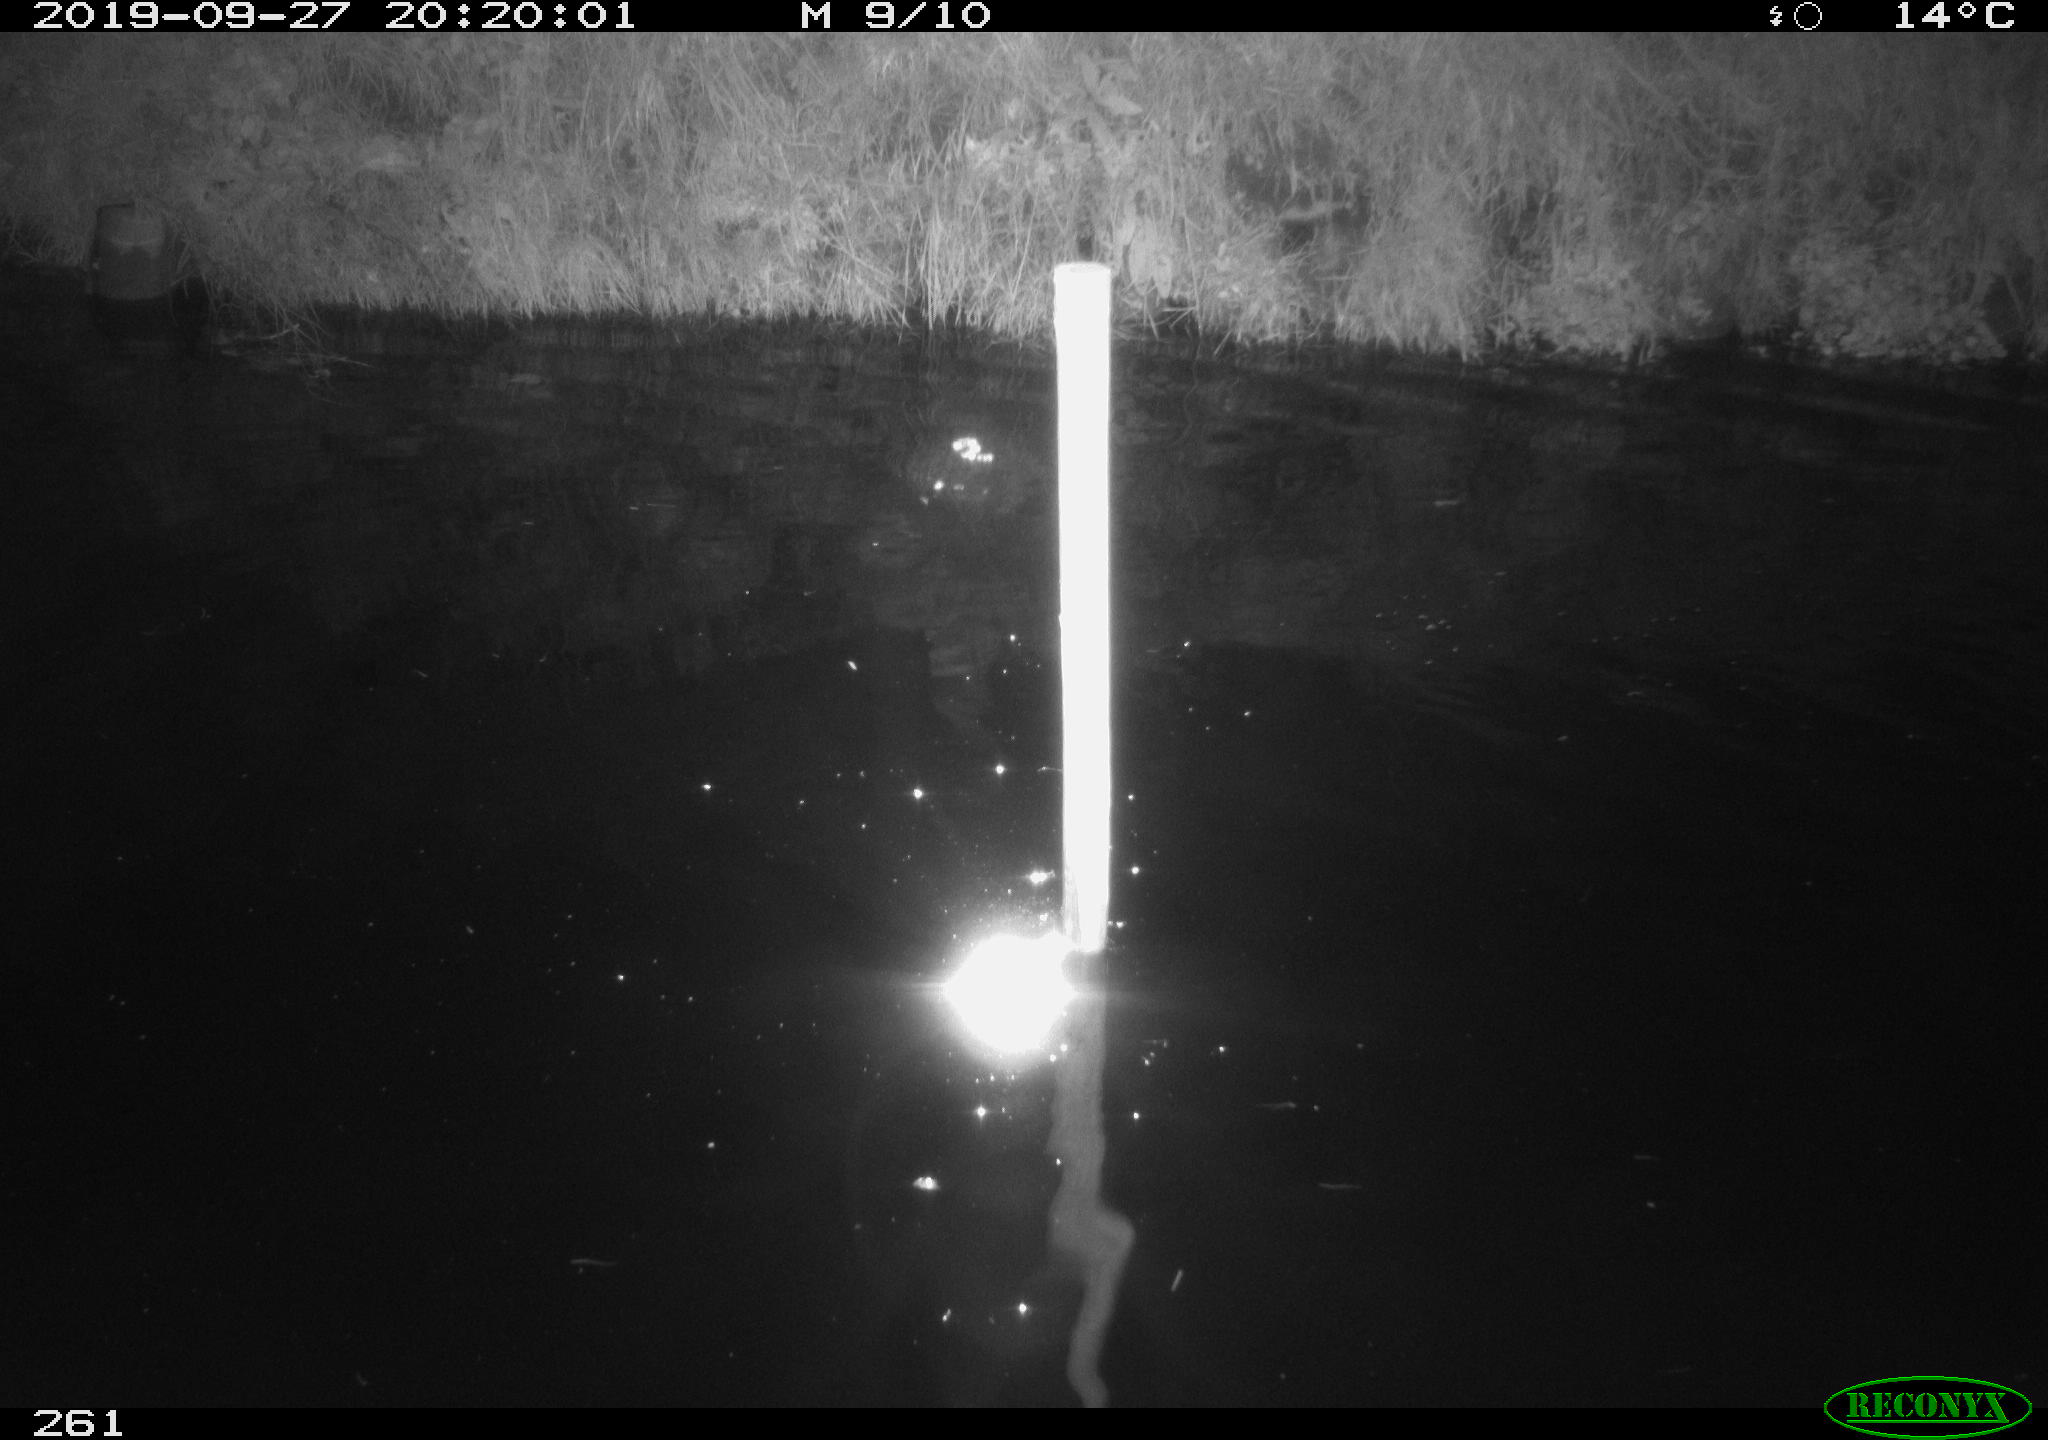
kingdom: Animalia
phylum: Chordata
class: Aves
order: Anseriformes
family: Anatidae
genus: Anas
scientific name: Anas platyrhynchos
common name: Mallard
